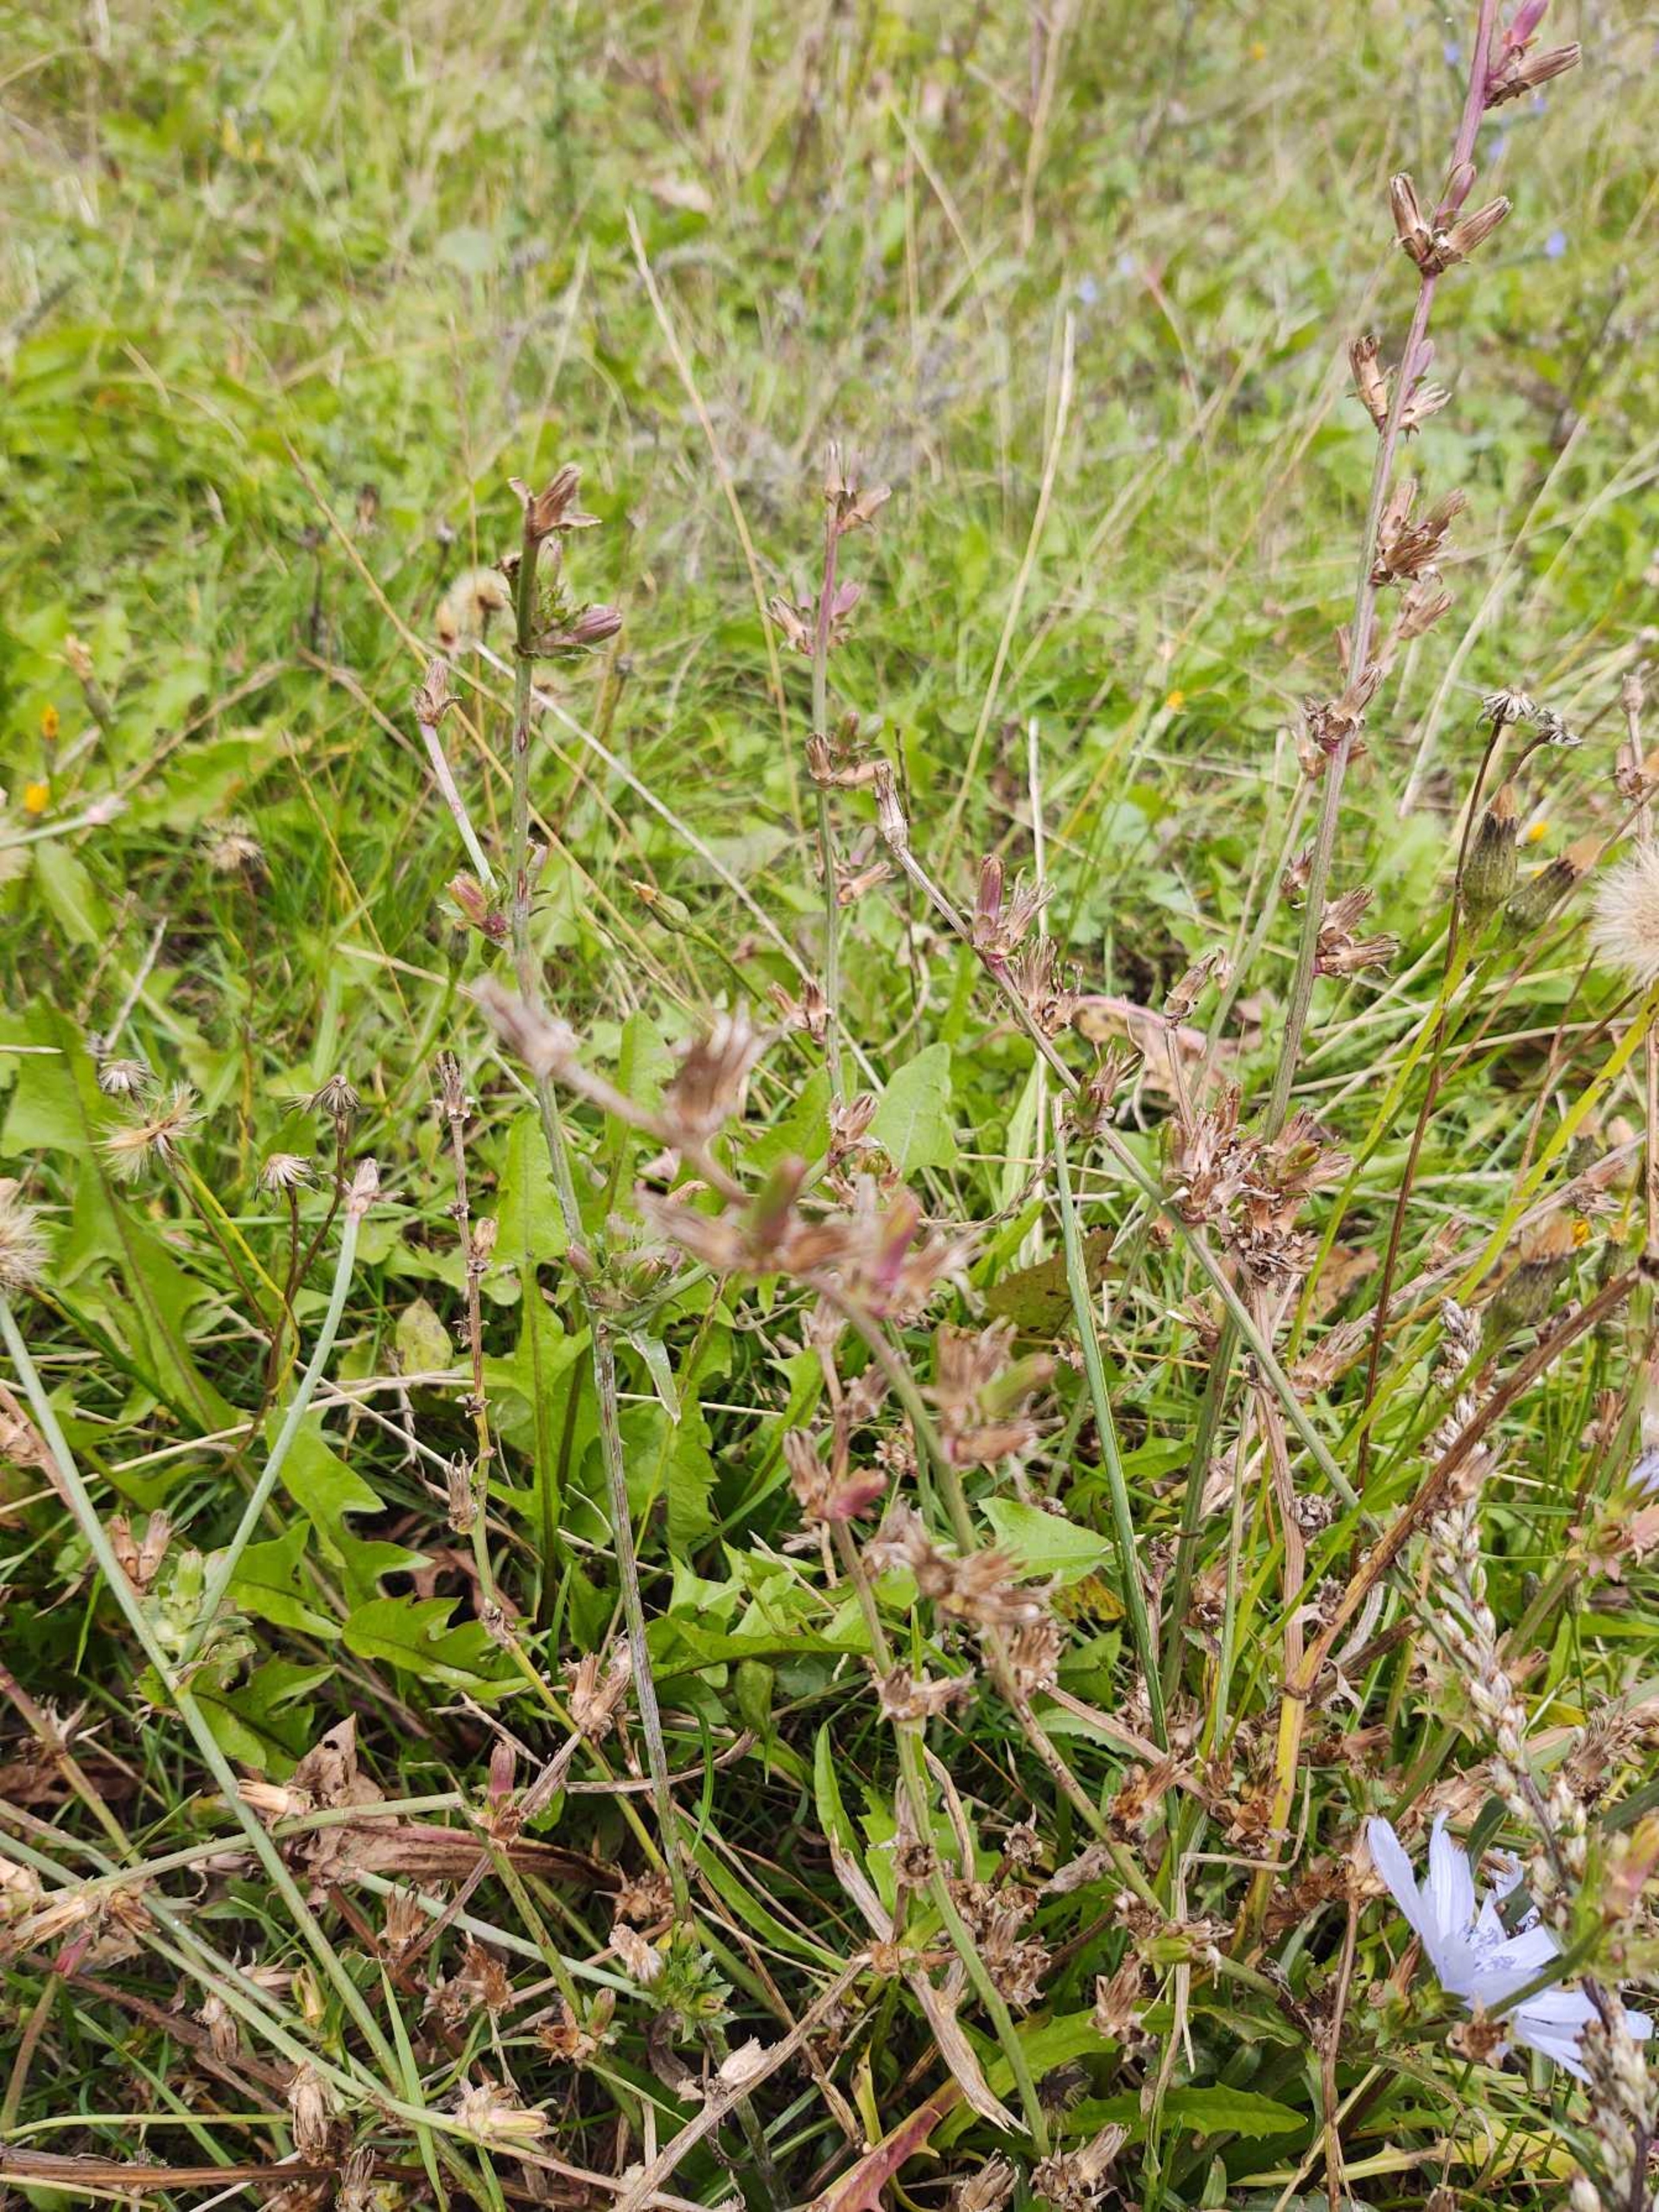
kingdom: Plantae
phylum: Tracheophyta
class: Magnoliopsida
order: Asterales
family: Asteraceae
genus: Cichorium
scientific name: Cichorium intybus
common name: Cikorie
